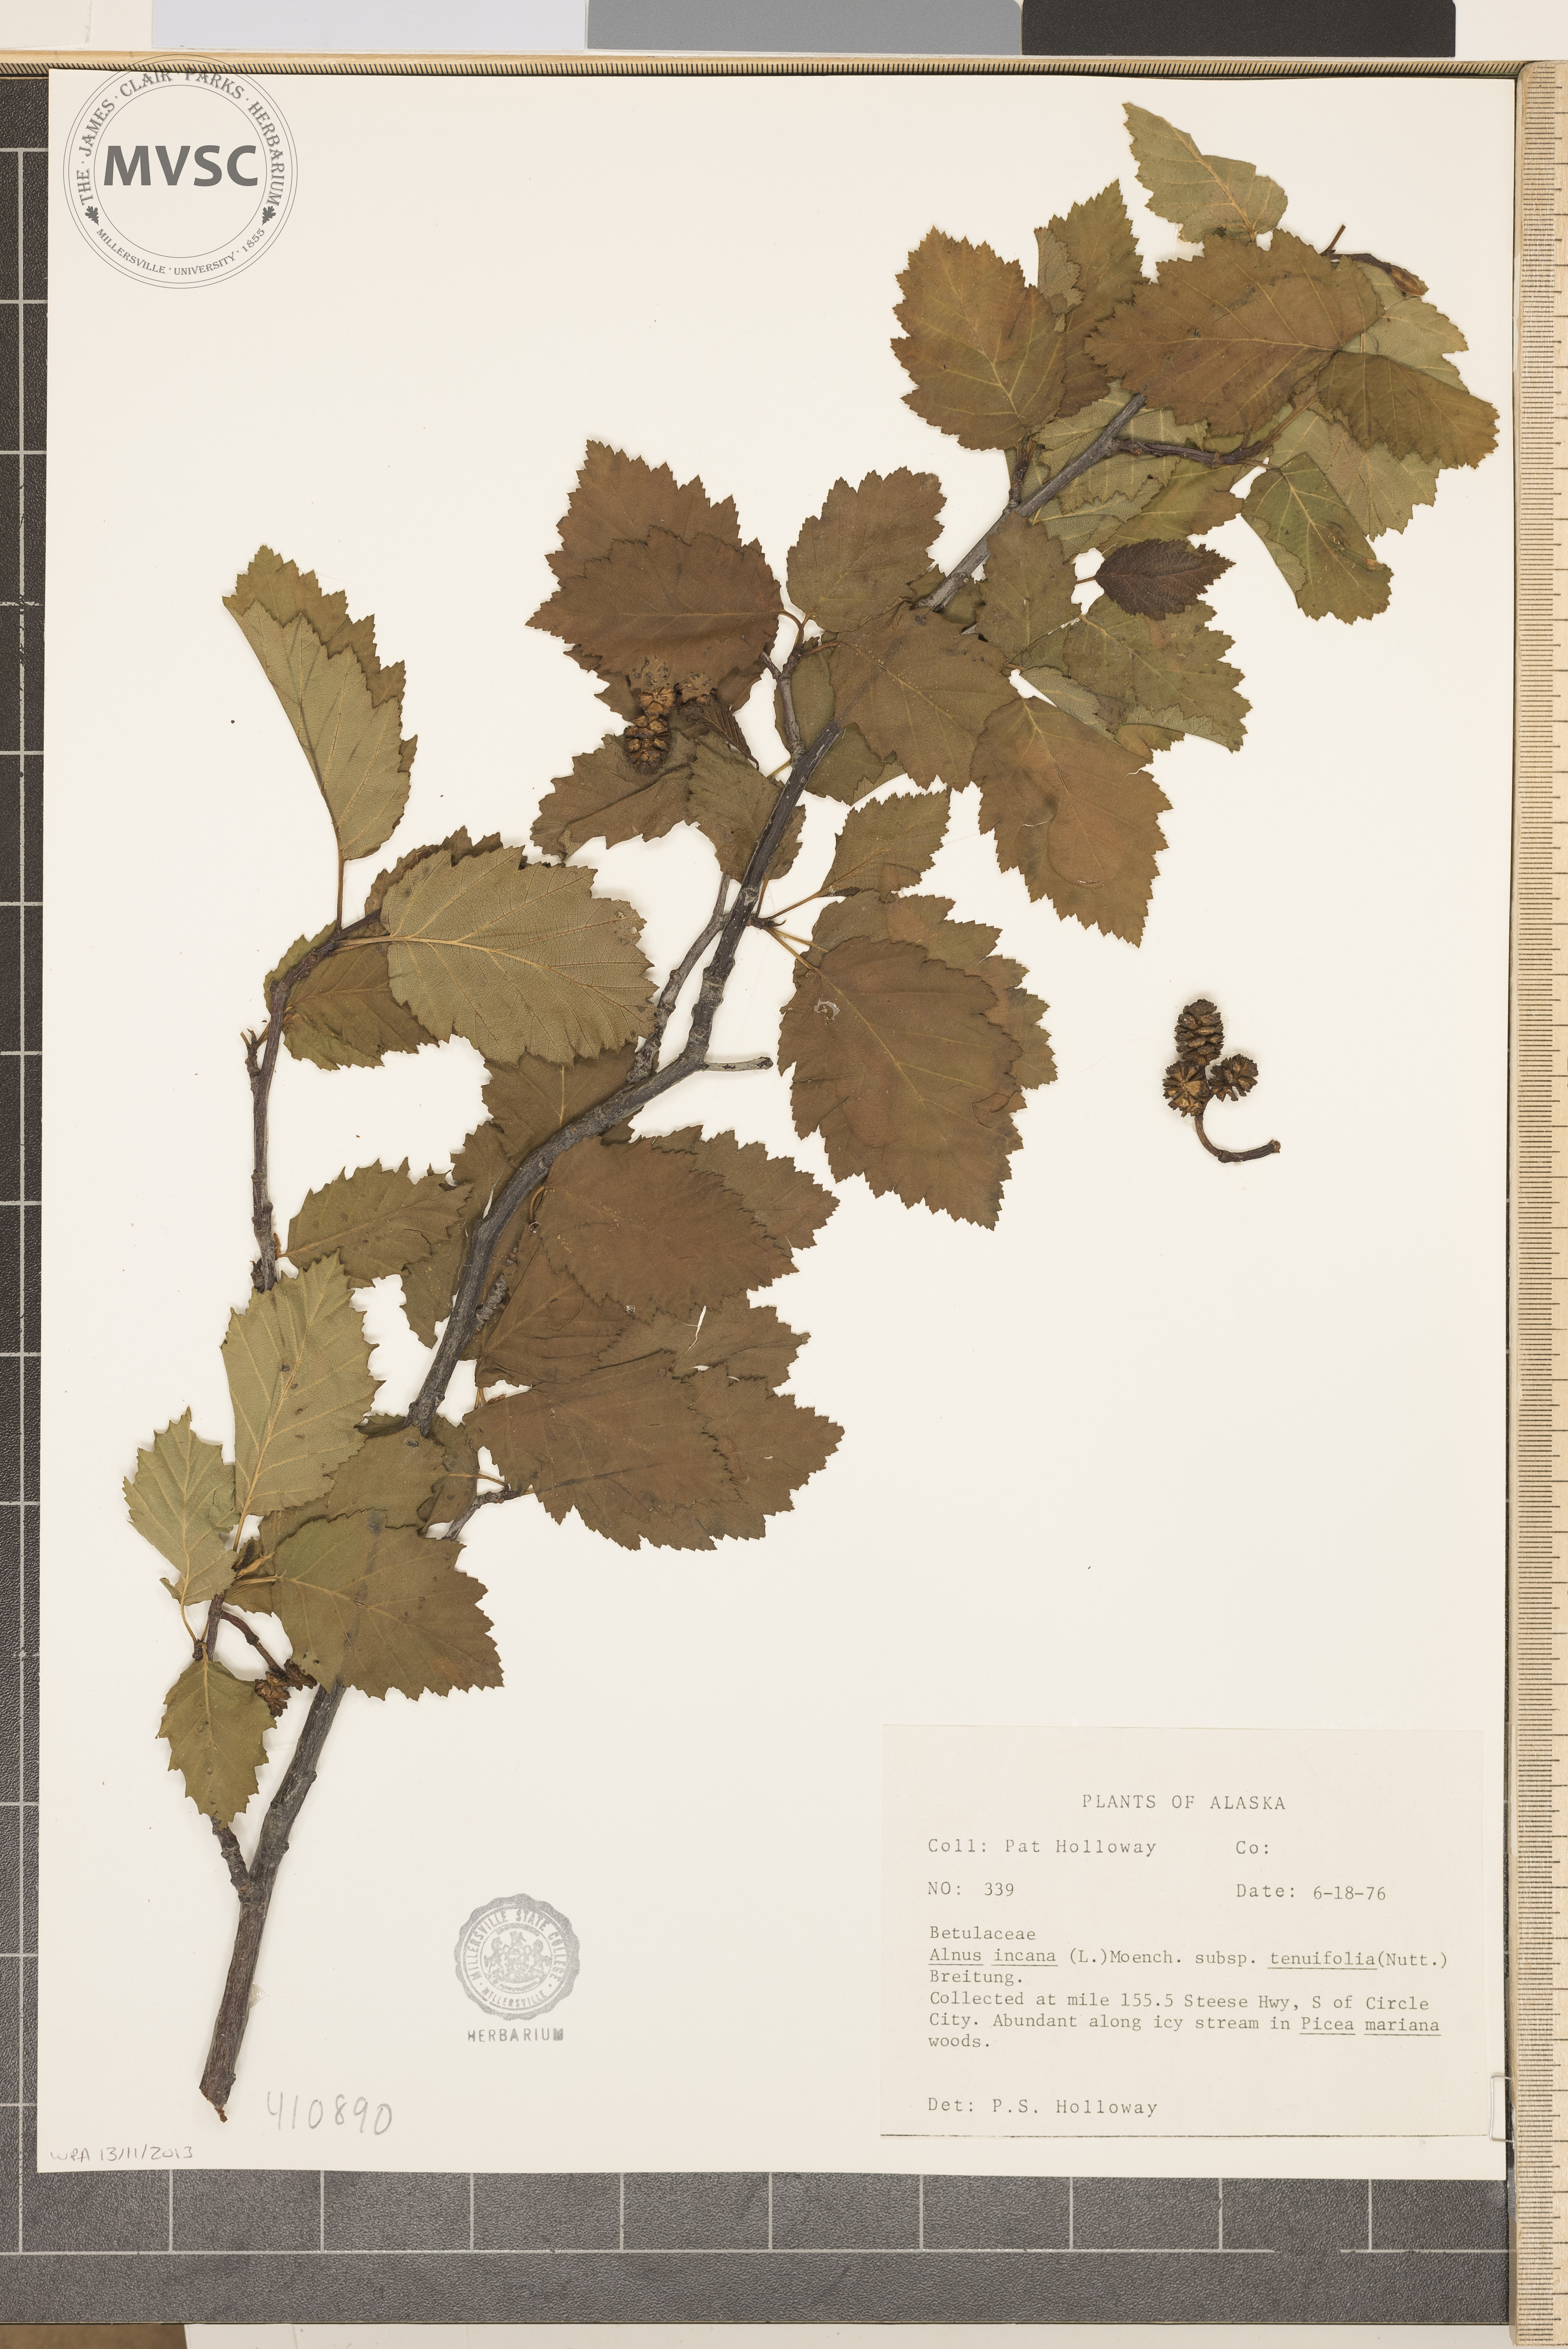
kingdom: Plantae
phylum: Tracheophyta
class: Magnoliopsida
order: Fagales
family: Betulaceae
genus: Alnus
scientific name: Alnus incana
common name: speckled alder
